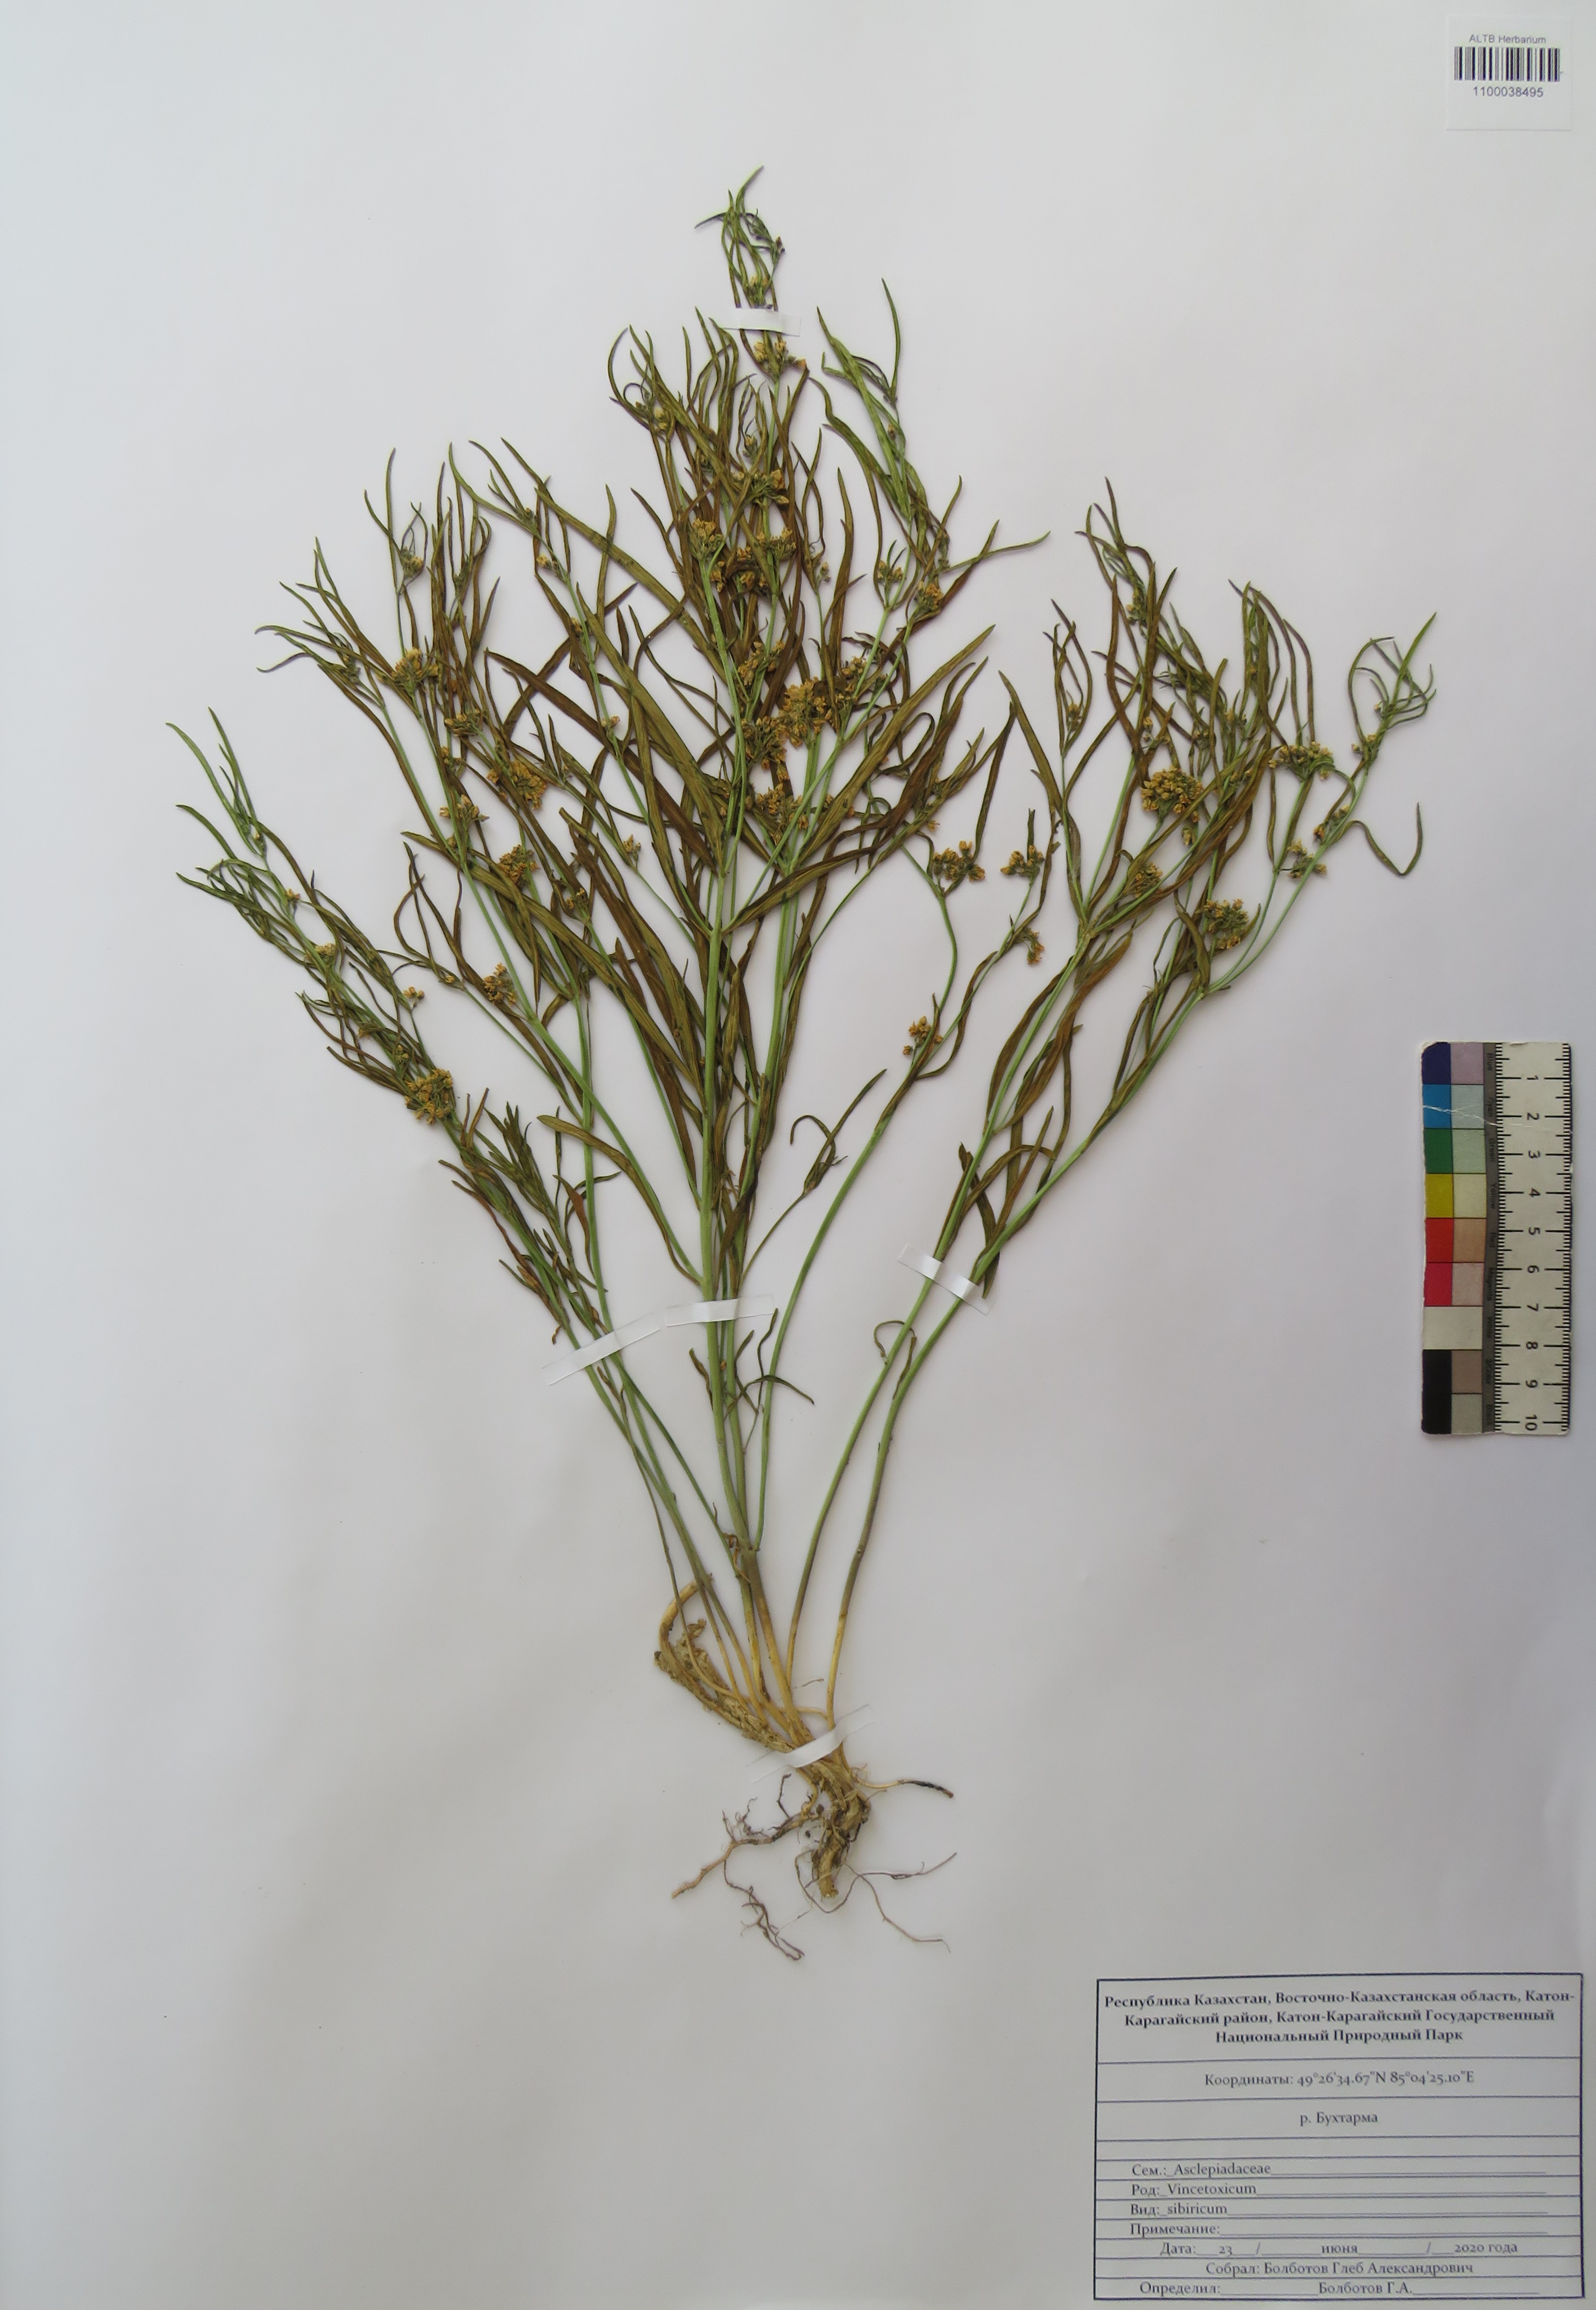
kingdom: Plantae
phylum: Tracheophyta
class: Magnoliopsida
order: Gentianales
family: Apocynaceae
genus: Cynanchum
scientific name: Cynanchum thesioides
